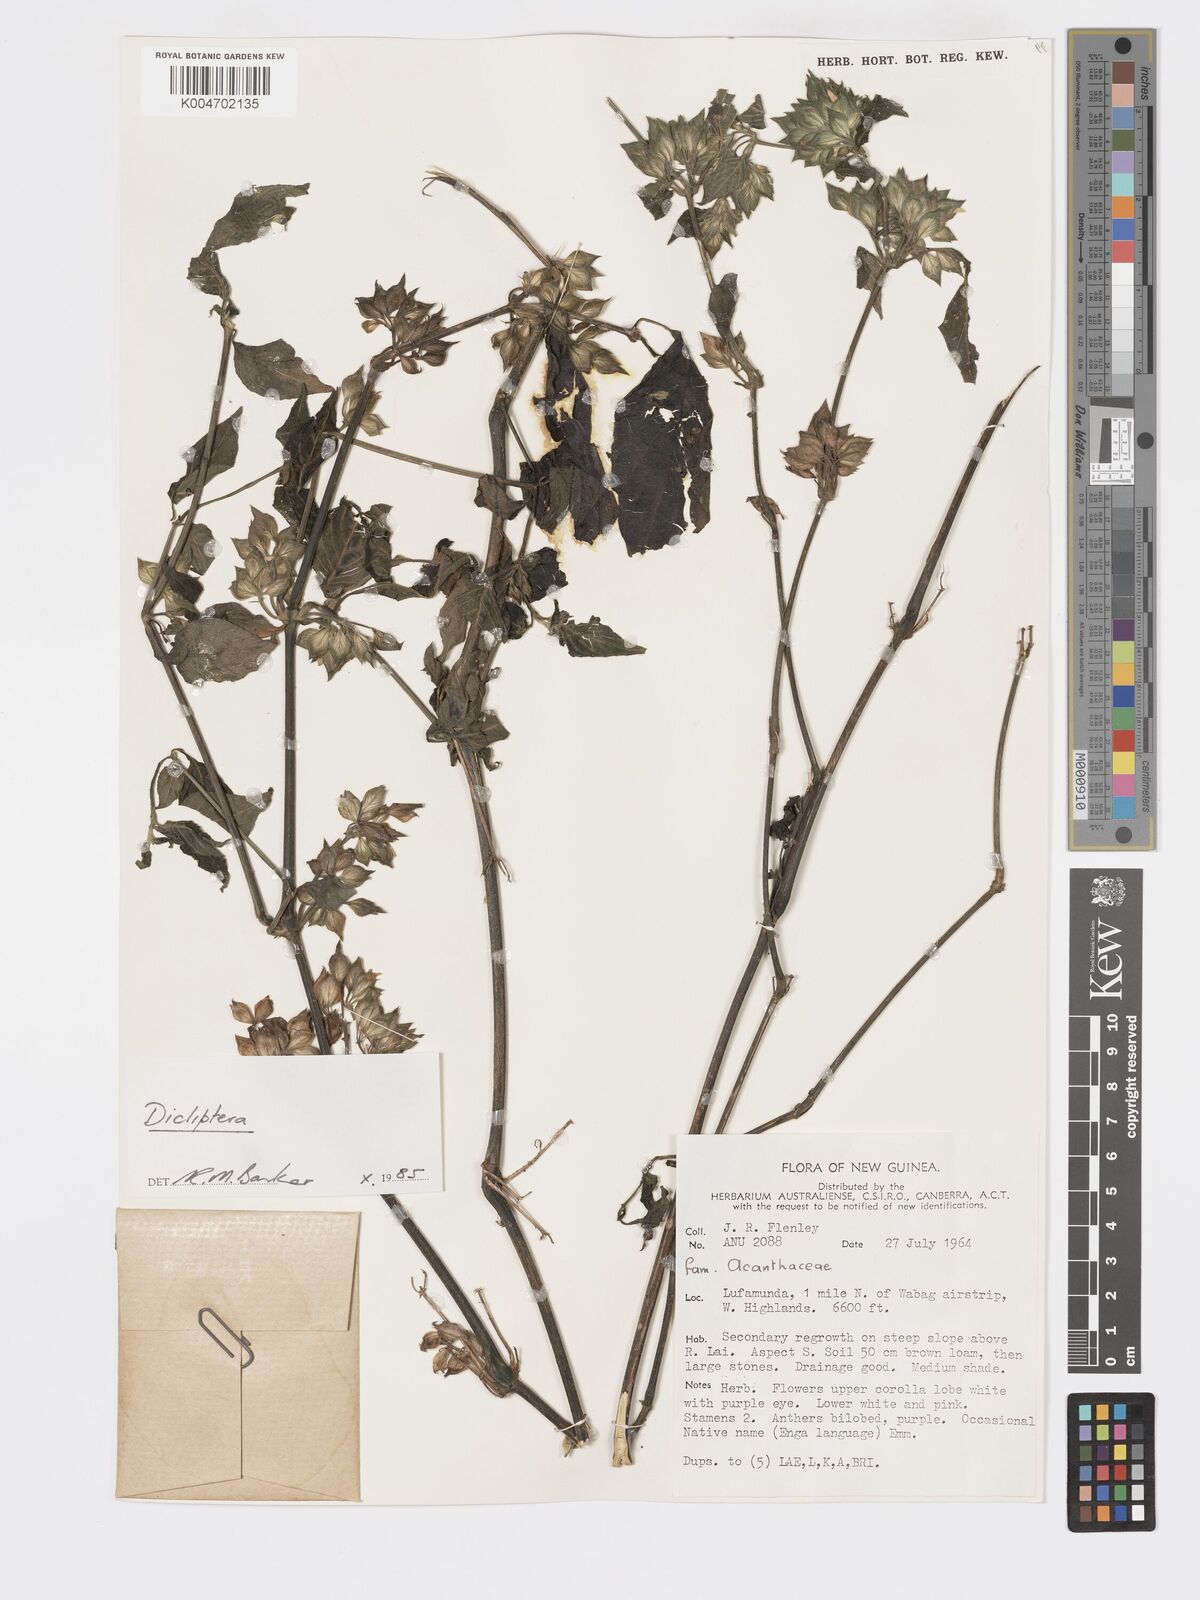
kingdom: Plantae
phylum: Tracheophyta
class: Magnoliopsida
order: Lamiales
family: Acanthaceae
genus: Dicliptera
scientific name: Dicliptera
